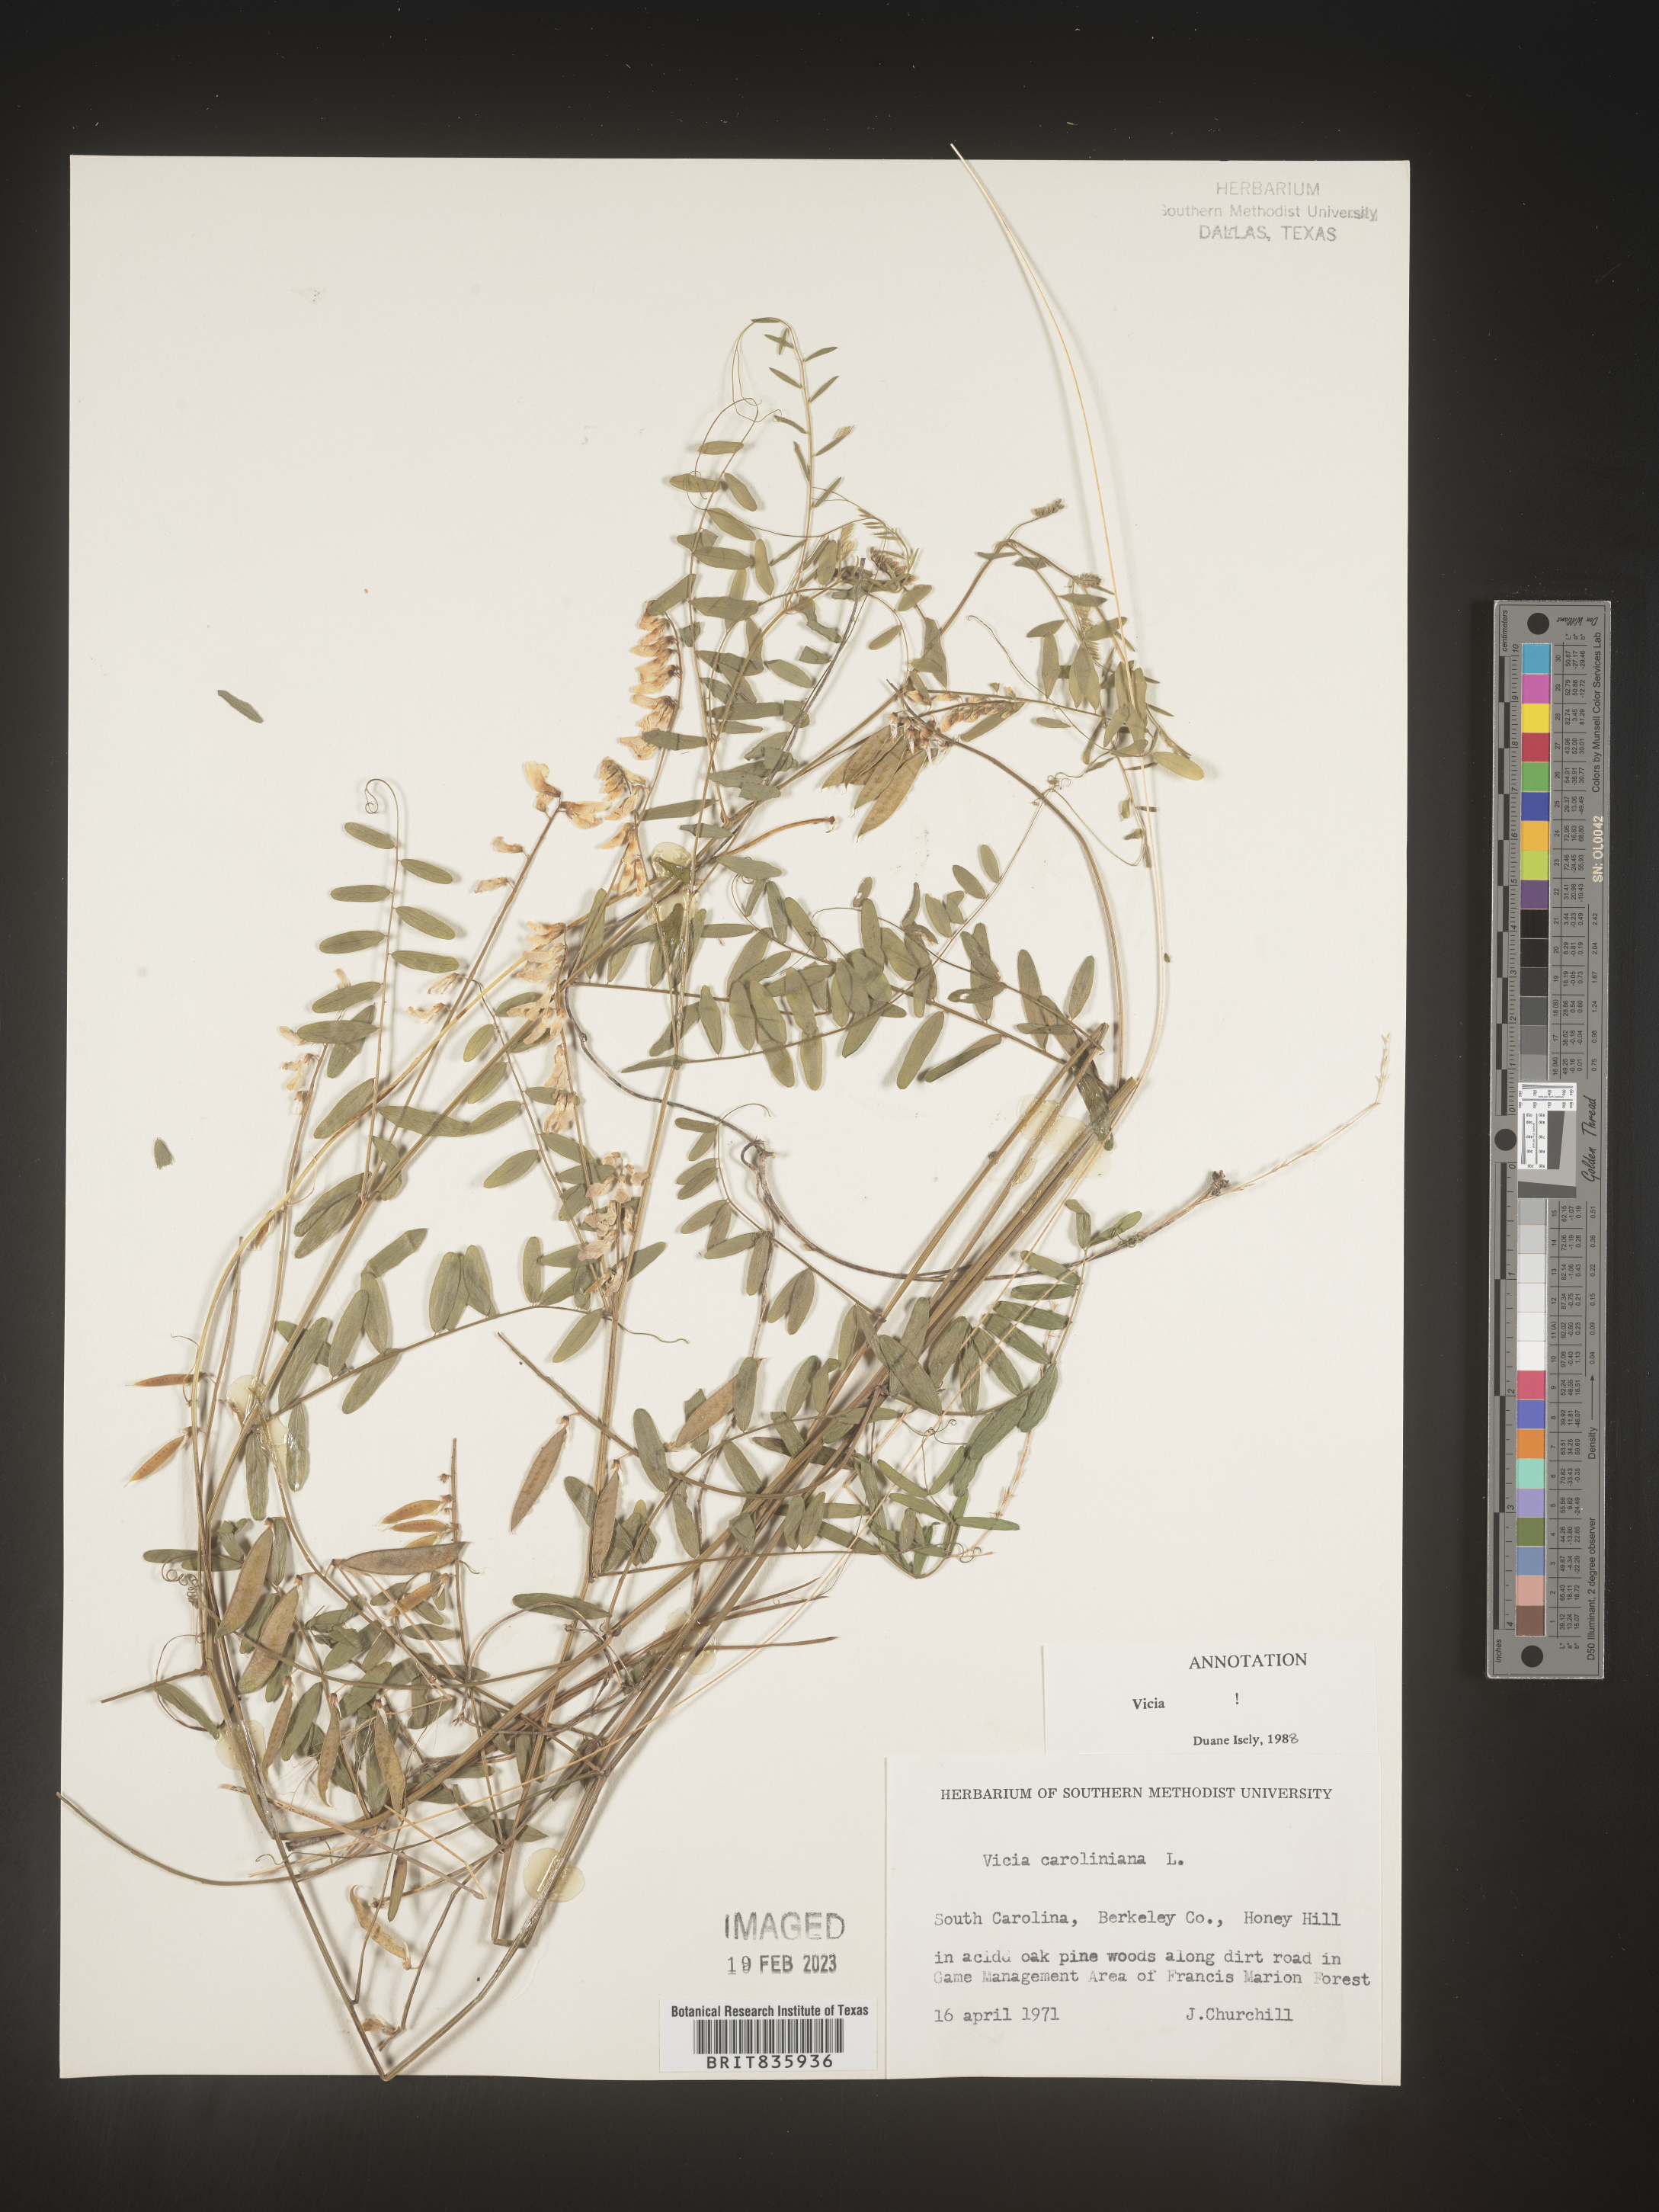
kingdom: Plantae
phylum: Tracheophyta
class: Magnoliopsida
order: Fabales
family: Fabaceae
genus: Vicia
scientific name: Vicia caroliniana
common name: Carolina vetch
